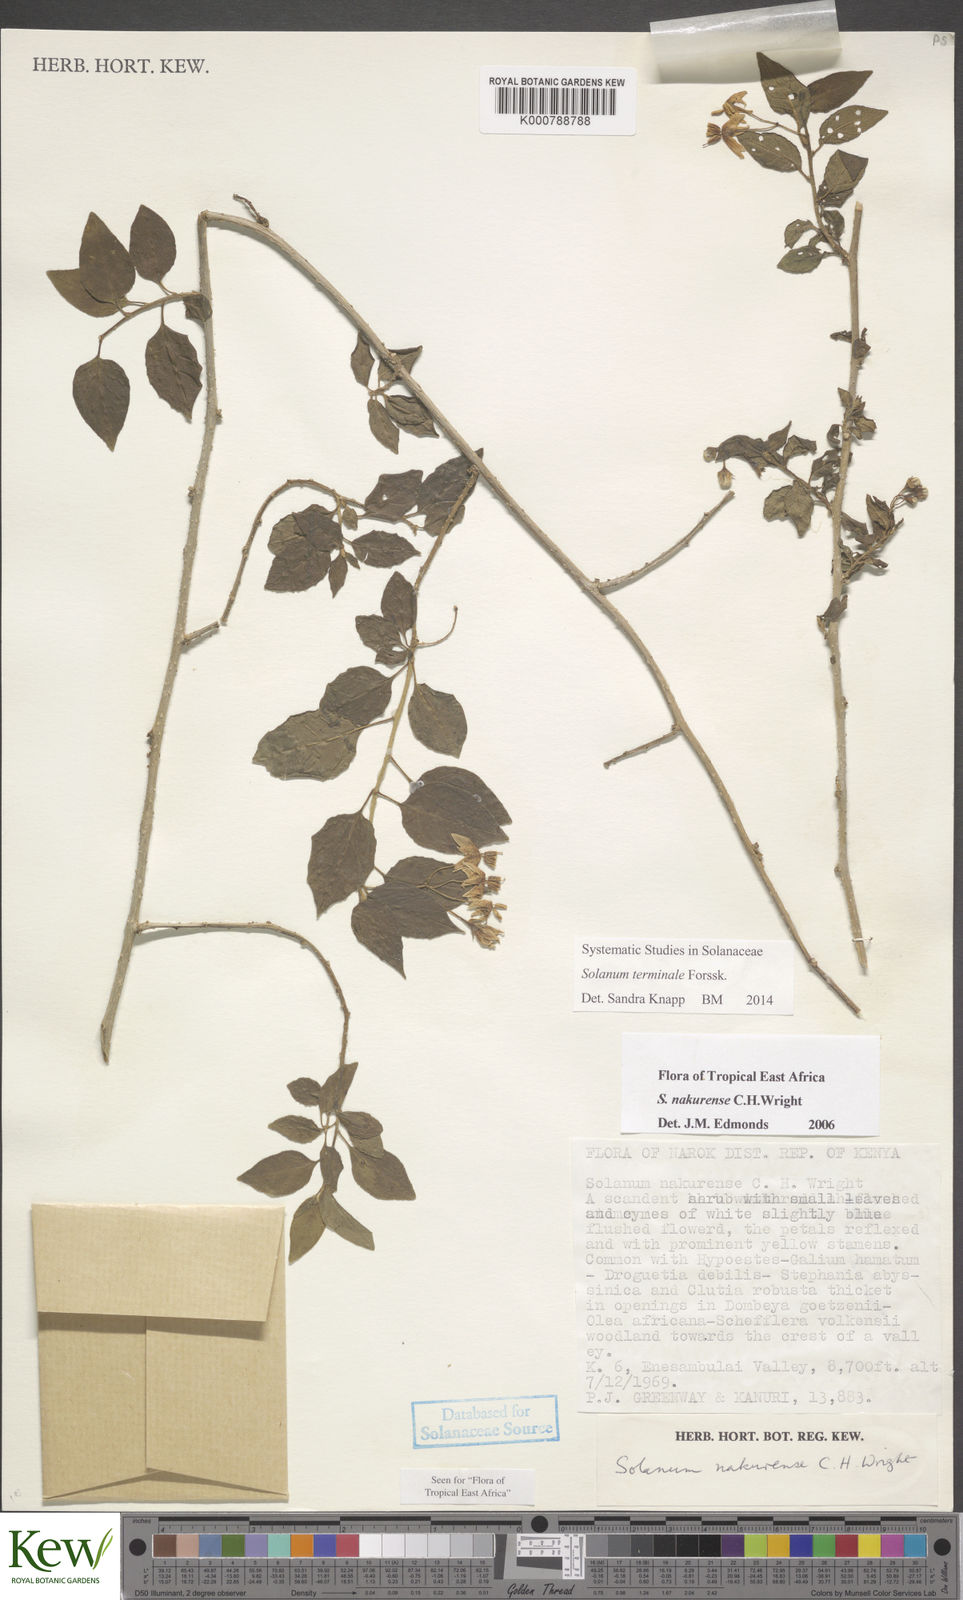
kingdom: Plantae
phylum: Tracheophyta
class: Magnoliopsida
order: Solanales
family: Solanaceae
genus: Solanum
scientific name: Solanum terminale
